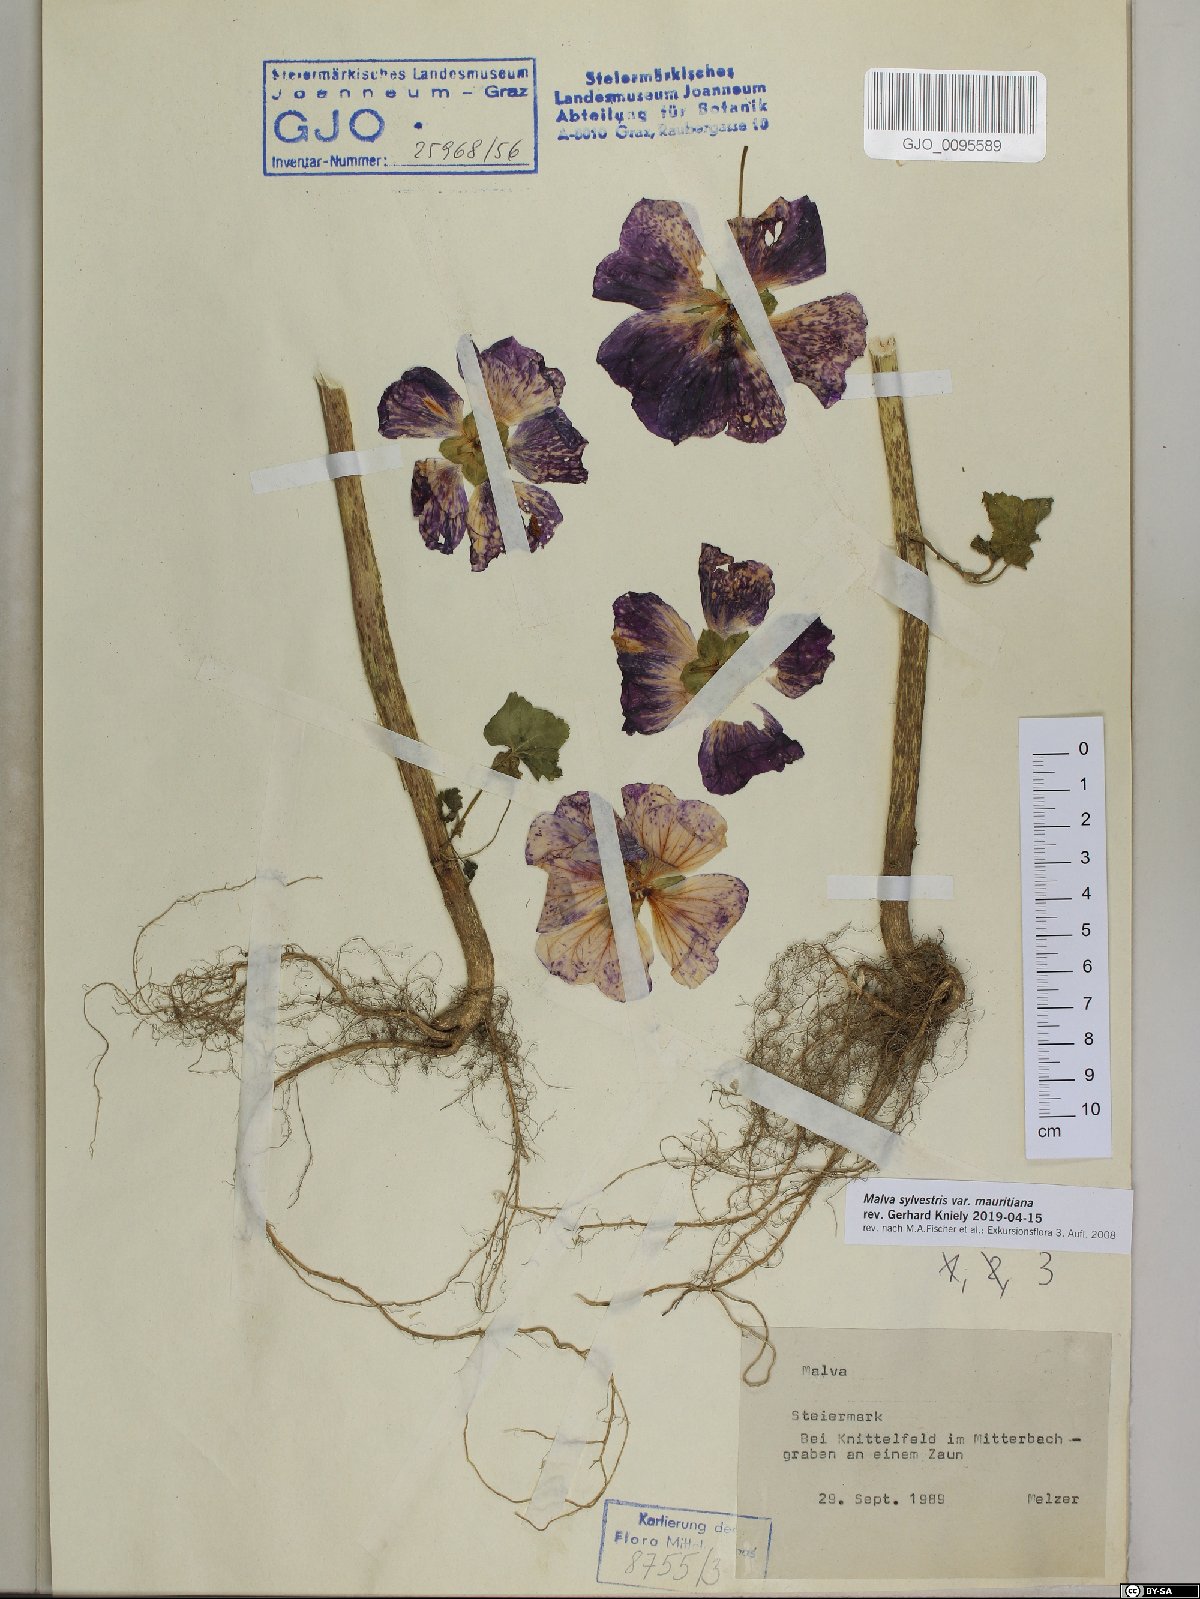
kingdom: Plantae
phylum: Tracheophyta
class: Magnoliopsida
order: Malvales
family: Malvaceae
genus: Malva
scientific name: Malva sylvestris
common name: Common mallow
